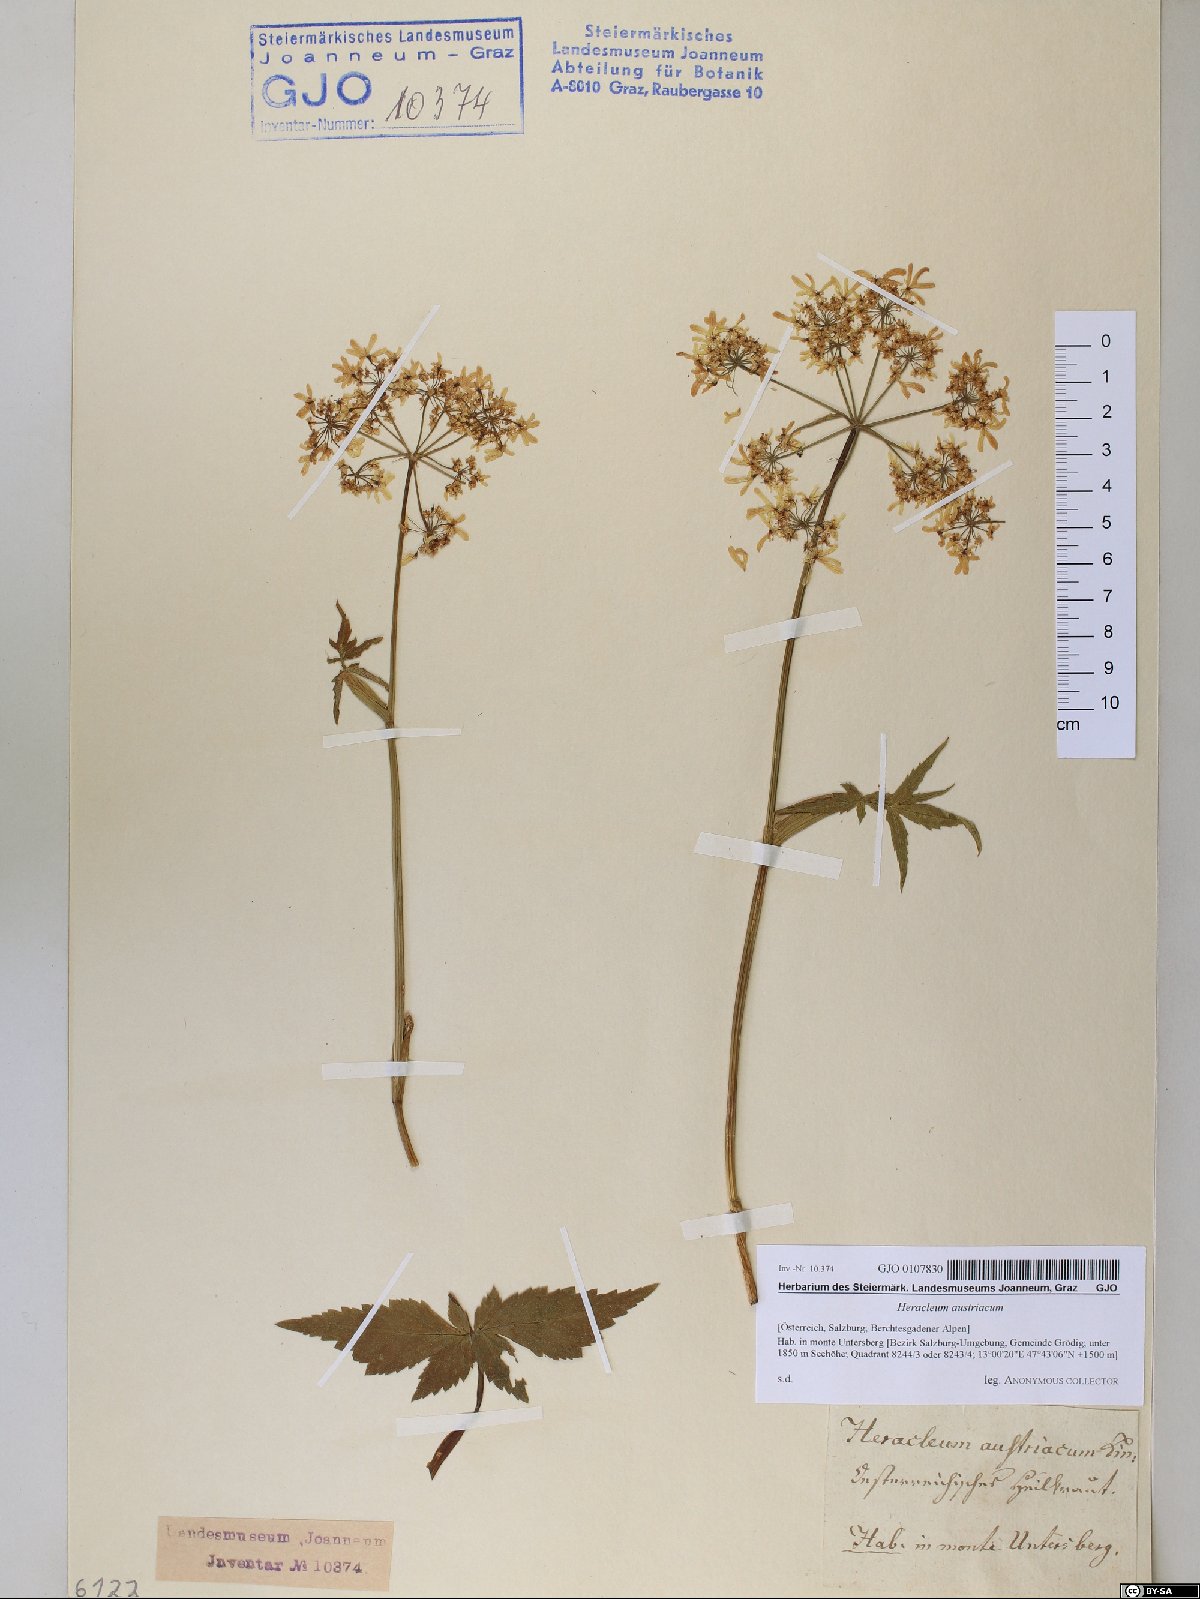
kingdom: Plantae
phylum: Tracheophyta
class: Magnoliopsida
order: Apiales
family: Apiaceae
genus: Heracleum
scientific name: Heracleum austriacum
